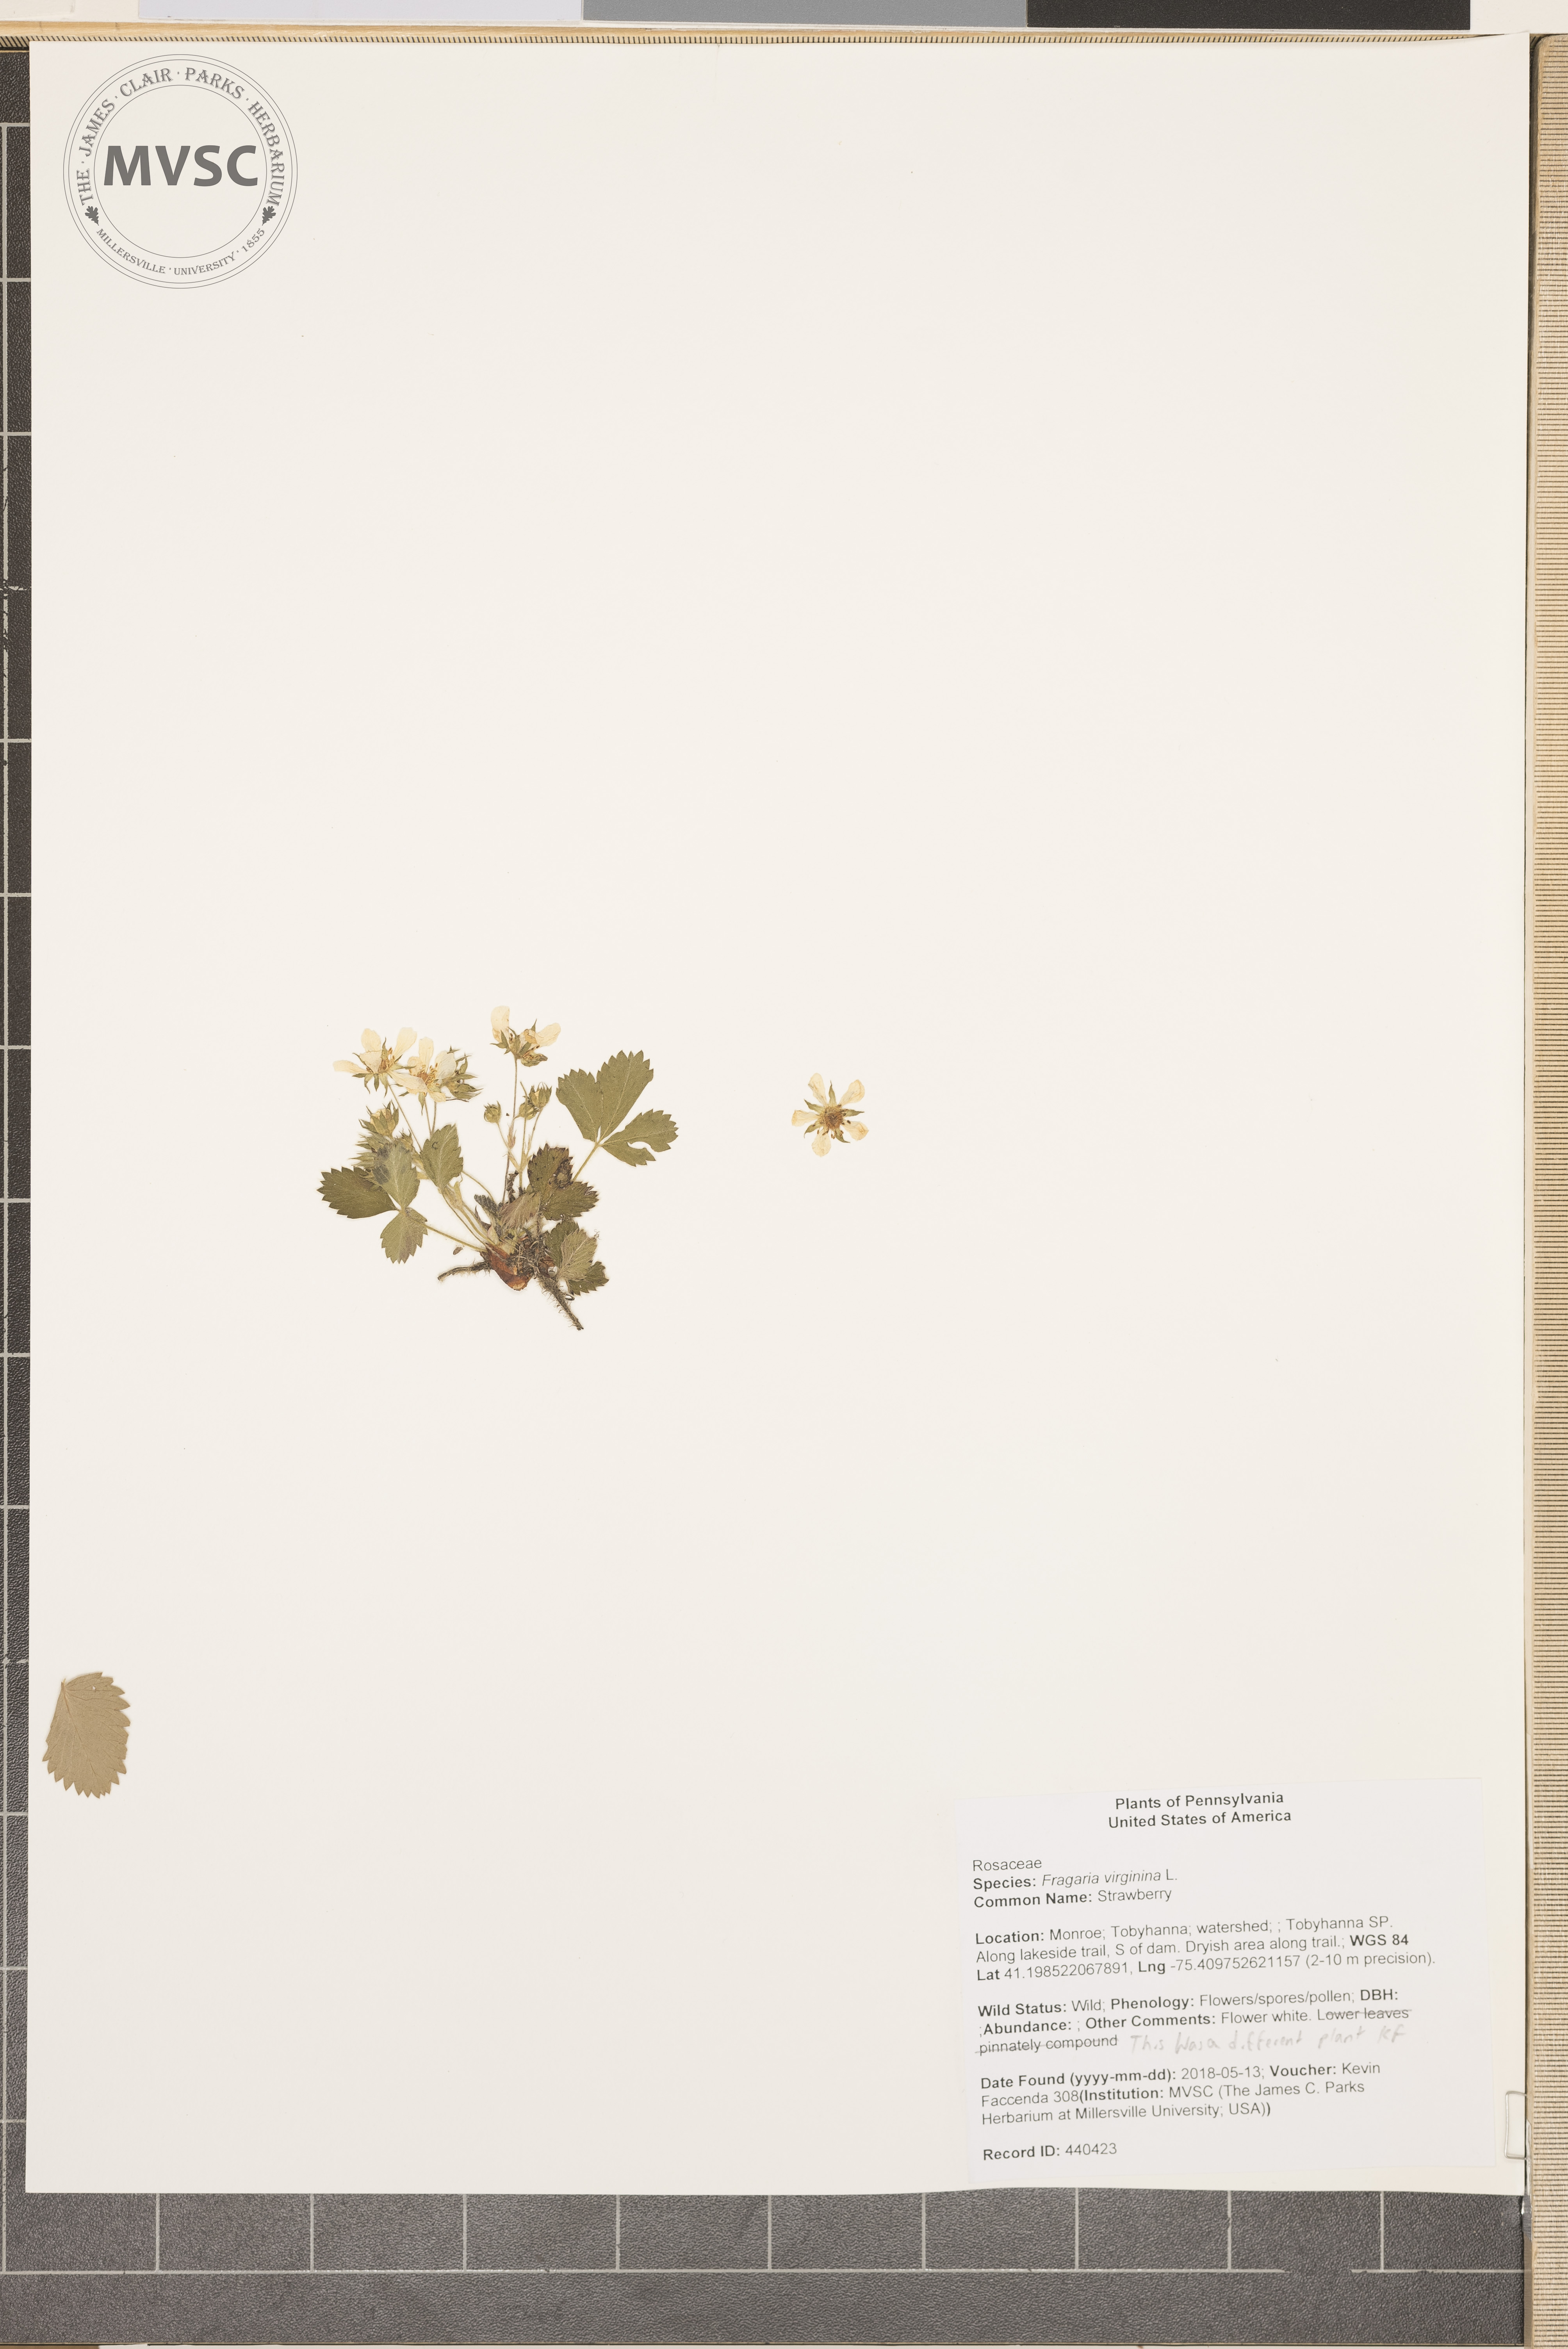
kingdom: Plantae
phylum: Tracheophyta
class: Magnoliopsida
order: Rosales
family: Rosaceae
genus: Fragaria
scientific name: Fragaria virginiana
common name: Strawberry
